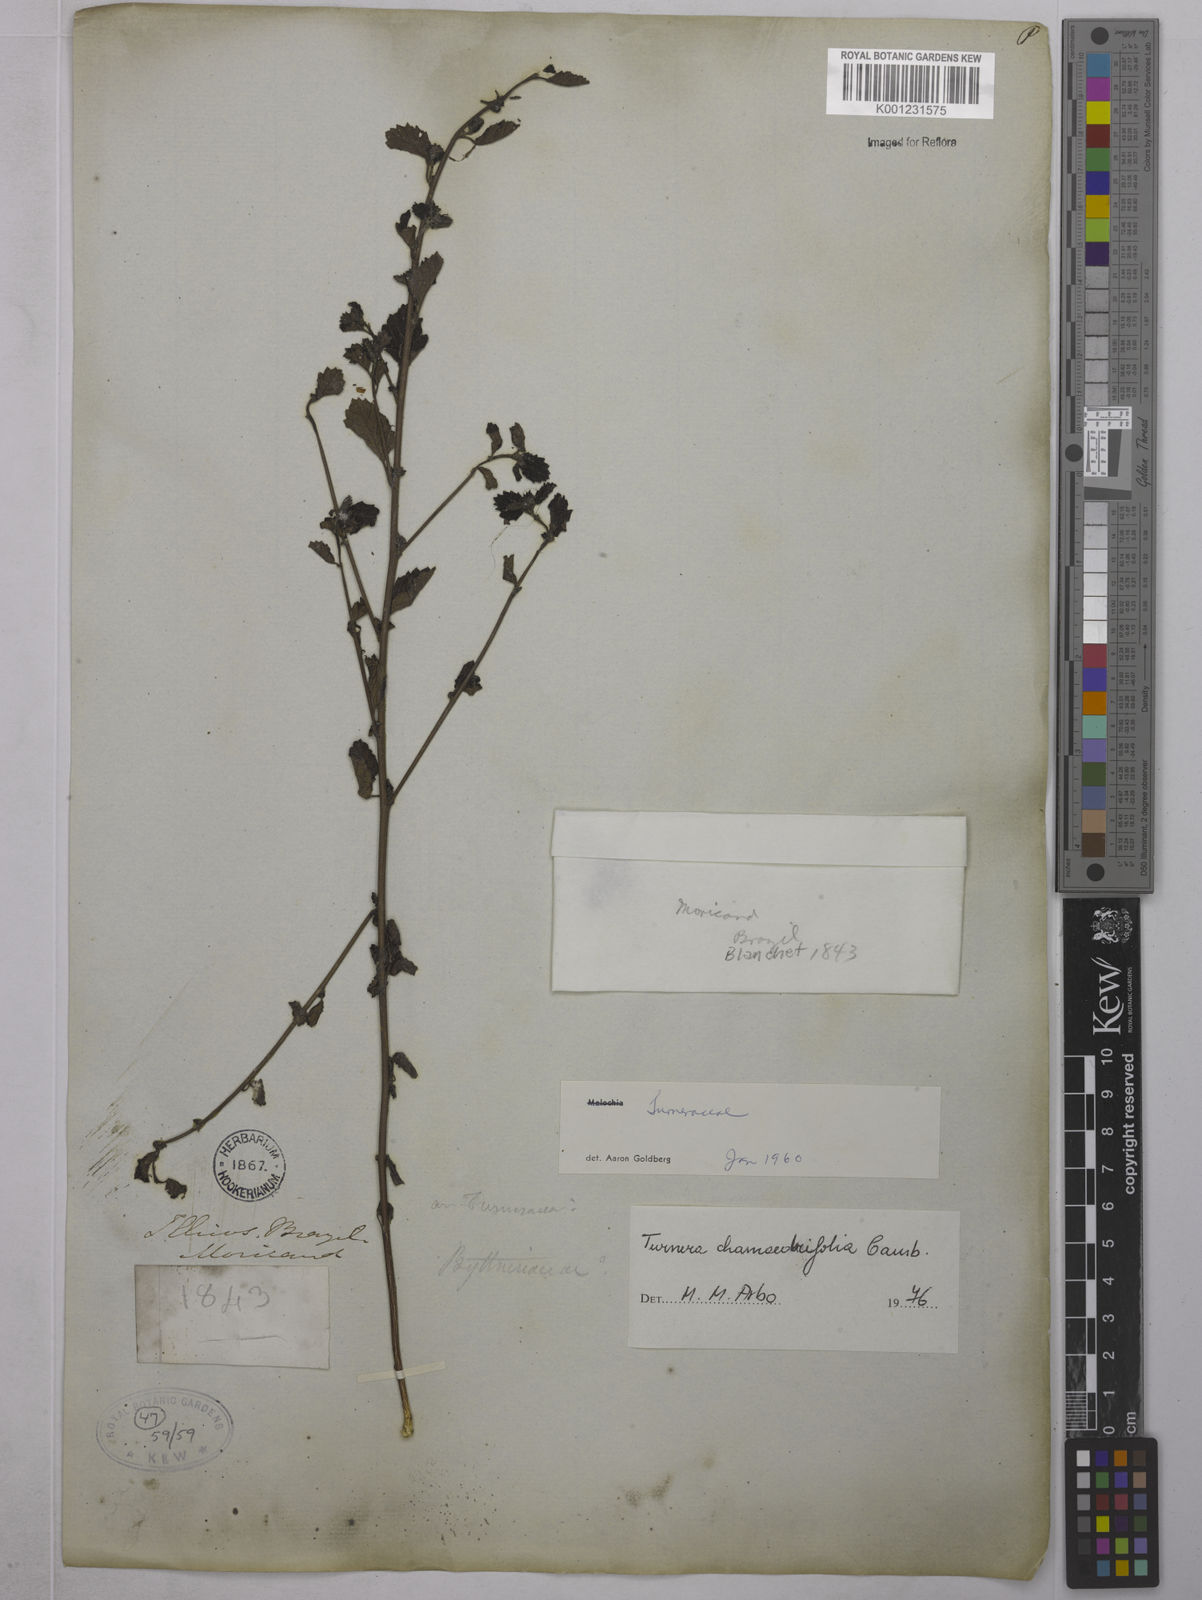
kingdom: Plantae
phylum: Tracheophyta
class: Magnoliopsida
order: Malpighiales
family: Turneraceae
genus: Turnera
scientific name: Turnera chamaedrifolia
